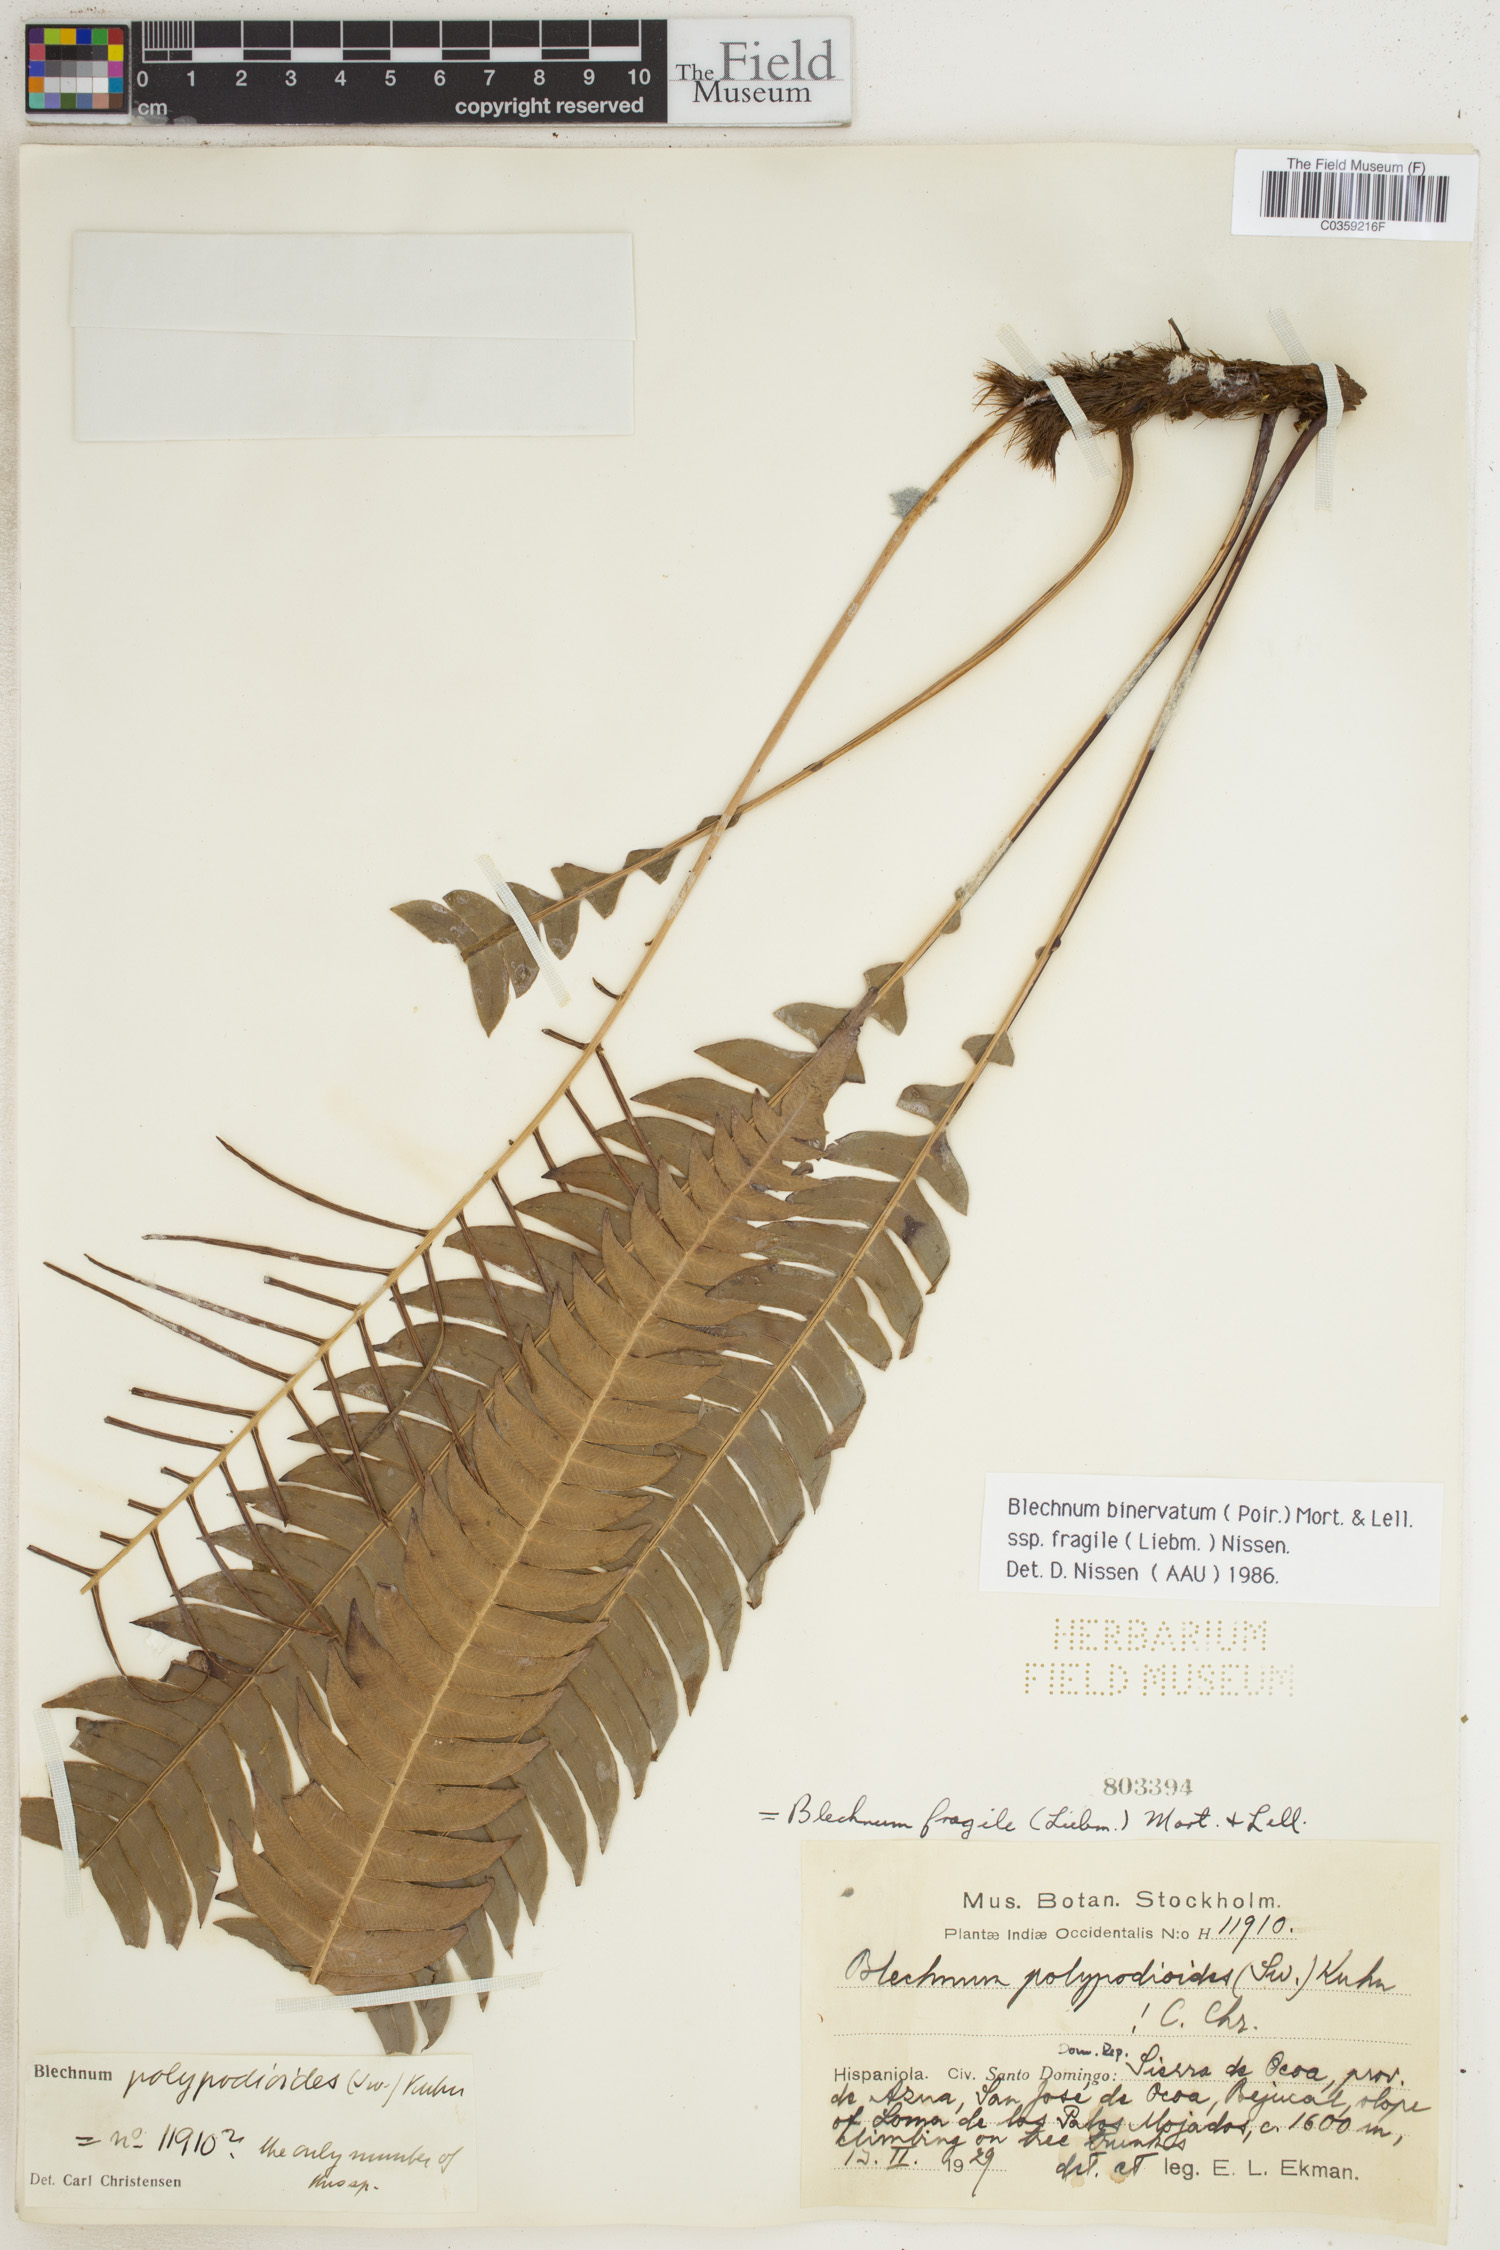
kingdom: Plantae
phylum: Tracheophyta
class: Polypodiopsida
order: Polypodiales
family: Blechnaceae
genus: Lomaridium
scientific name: Lomaridium binervatum
